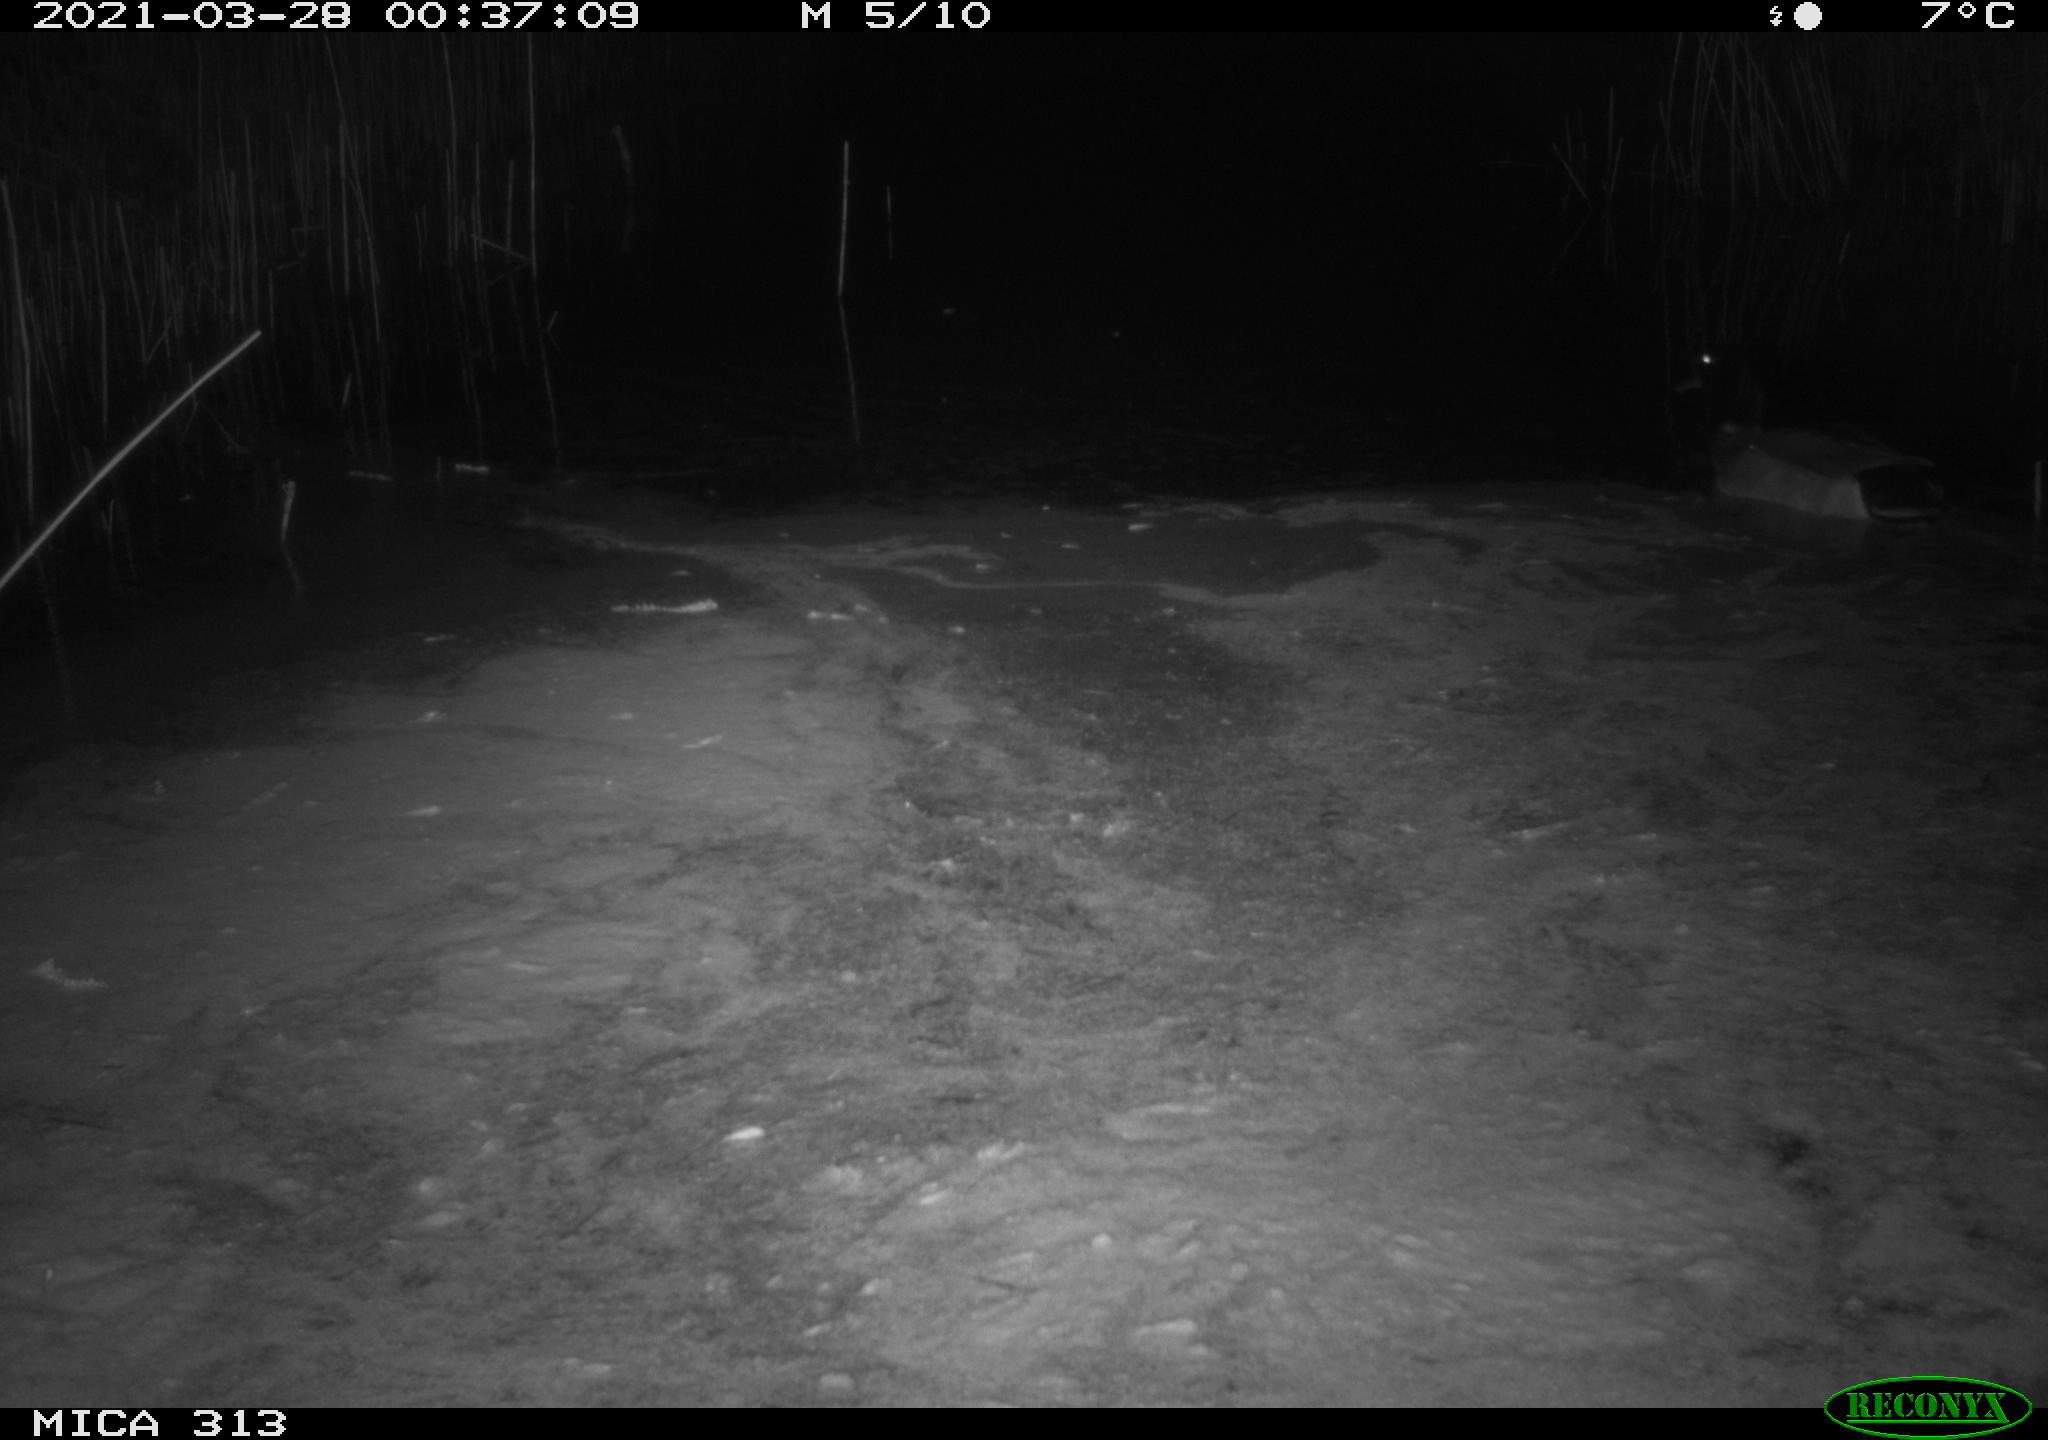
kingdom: Animalia
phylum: Chordata
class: Aves
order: Anseriformes
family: Anatidae
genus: Anas
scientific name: Anas platyrhynchos
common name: Mallard
